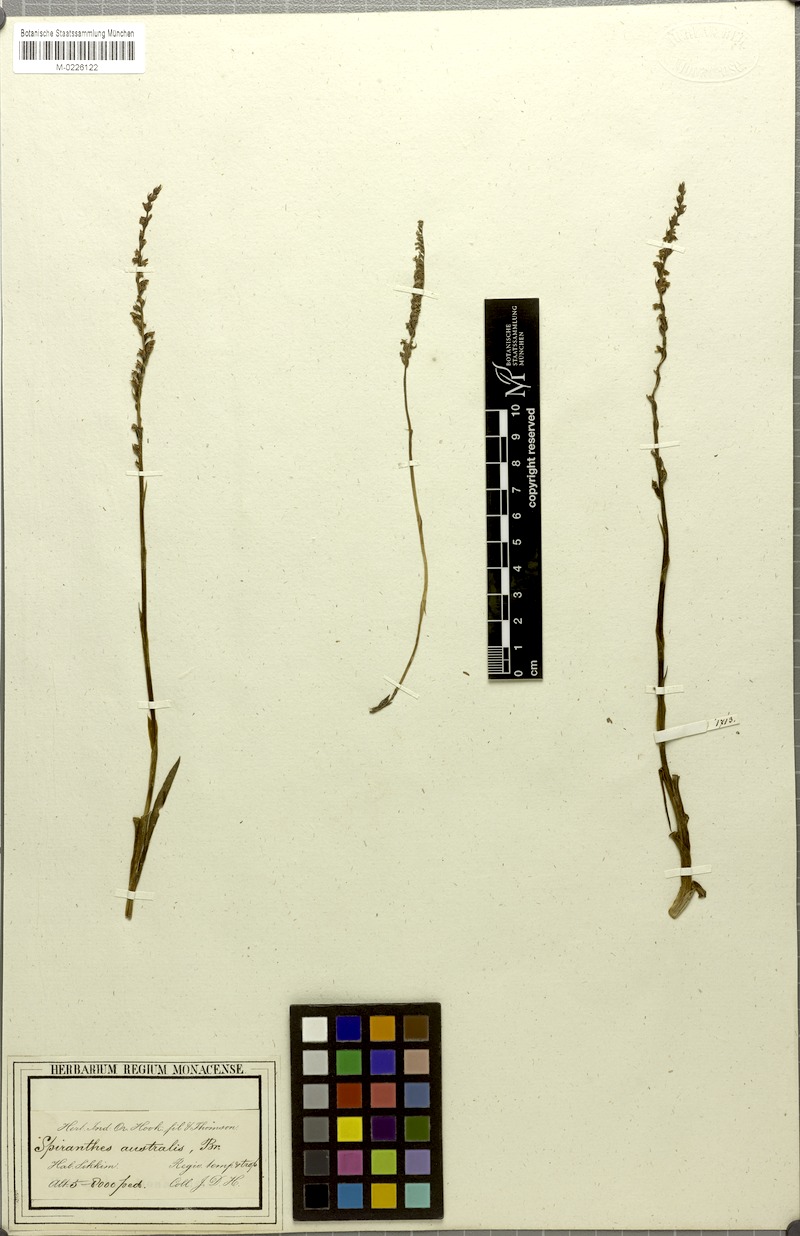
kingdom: Plantae
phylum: Tracheophyta
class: Liliopsida
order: Asparagales
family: Orchidaceae
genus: Spiranthes
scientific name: Spiranthes sinensis
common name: Chinese spiranthes
